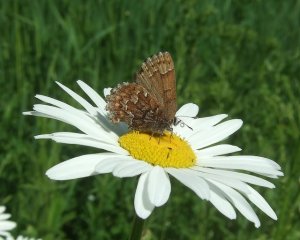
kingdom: Animalia
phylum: Arthropoda
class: Insecta
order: Lepidoptera
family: Lycaenidae
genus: Incisalia
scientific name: Incisalia niphon
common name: Eastern Pine Elfin
